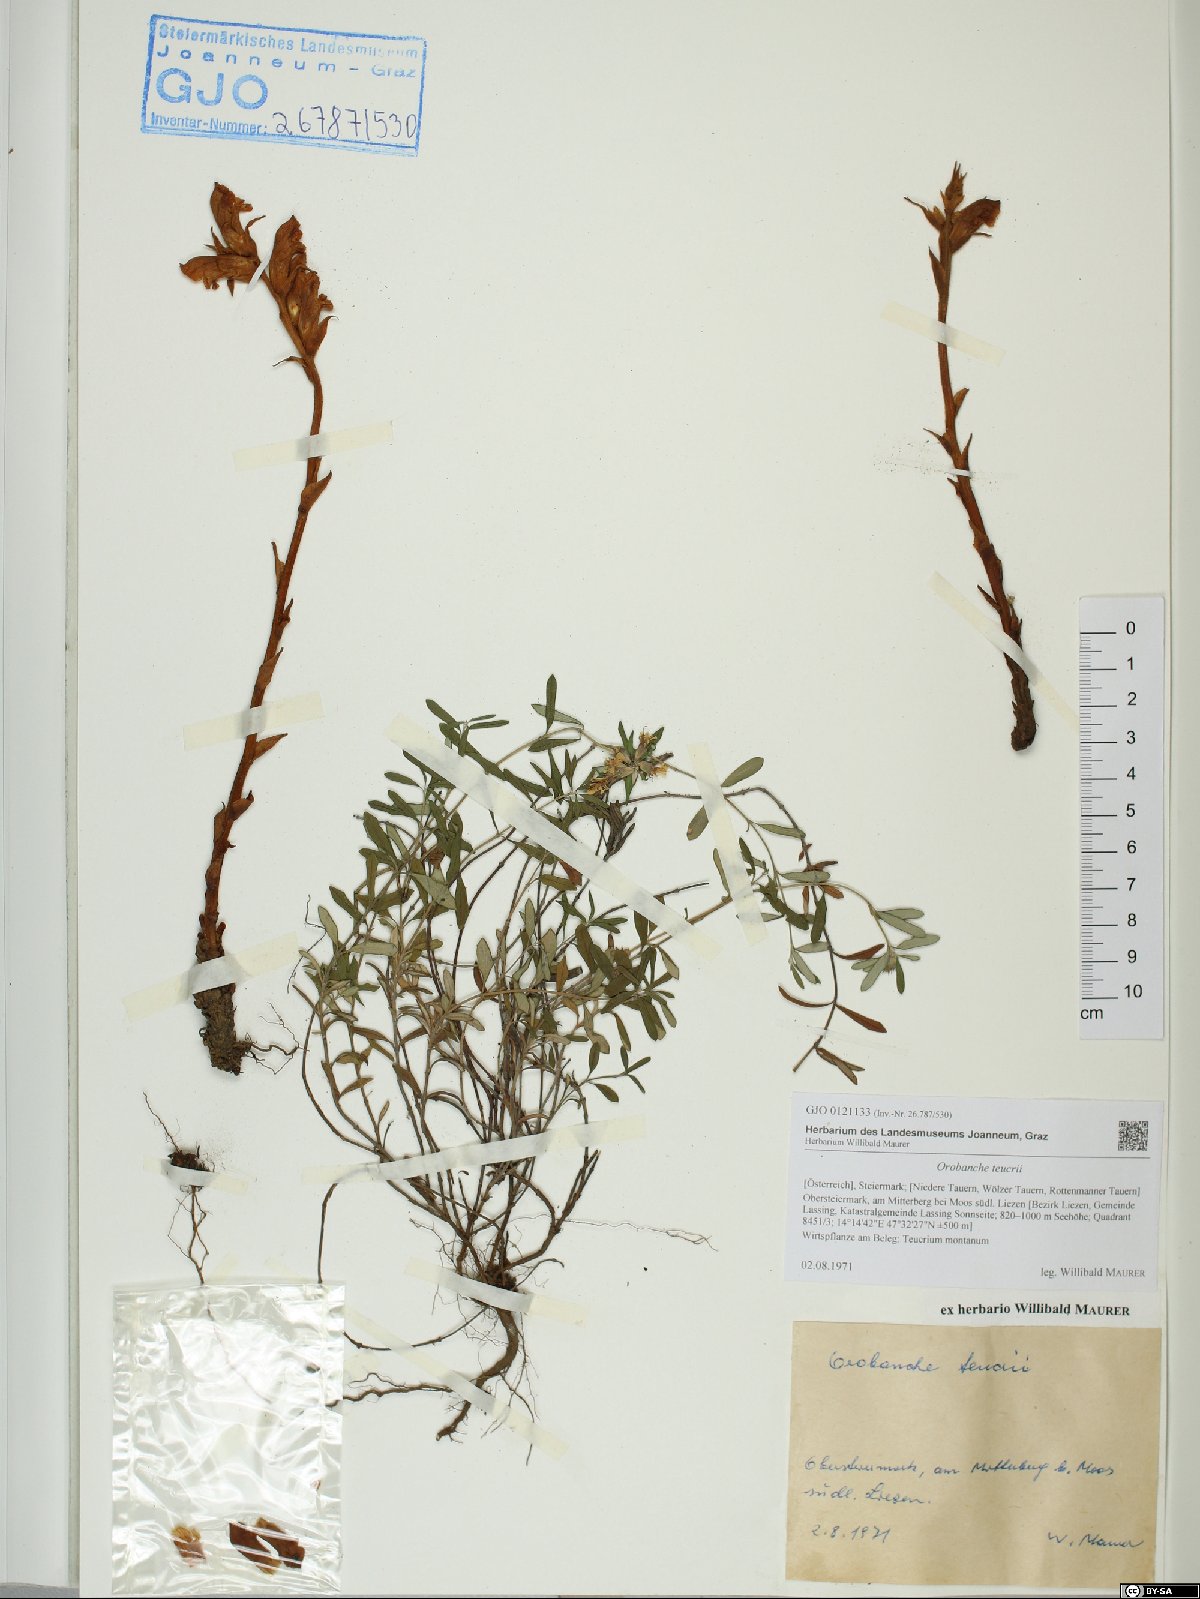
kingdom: Plantae
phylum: Tracheophyta
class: Magnoliopsida
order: Lamiales
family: Orobanchaceae
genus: Orobanche
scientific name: Orobanche teucrii
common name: Germander broomrape
